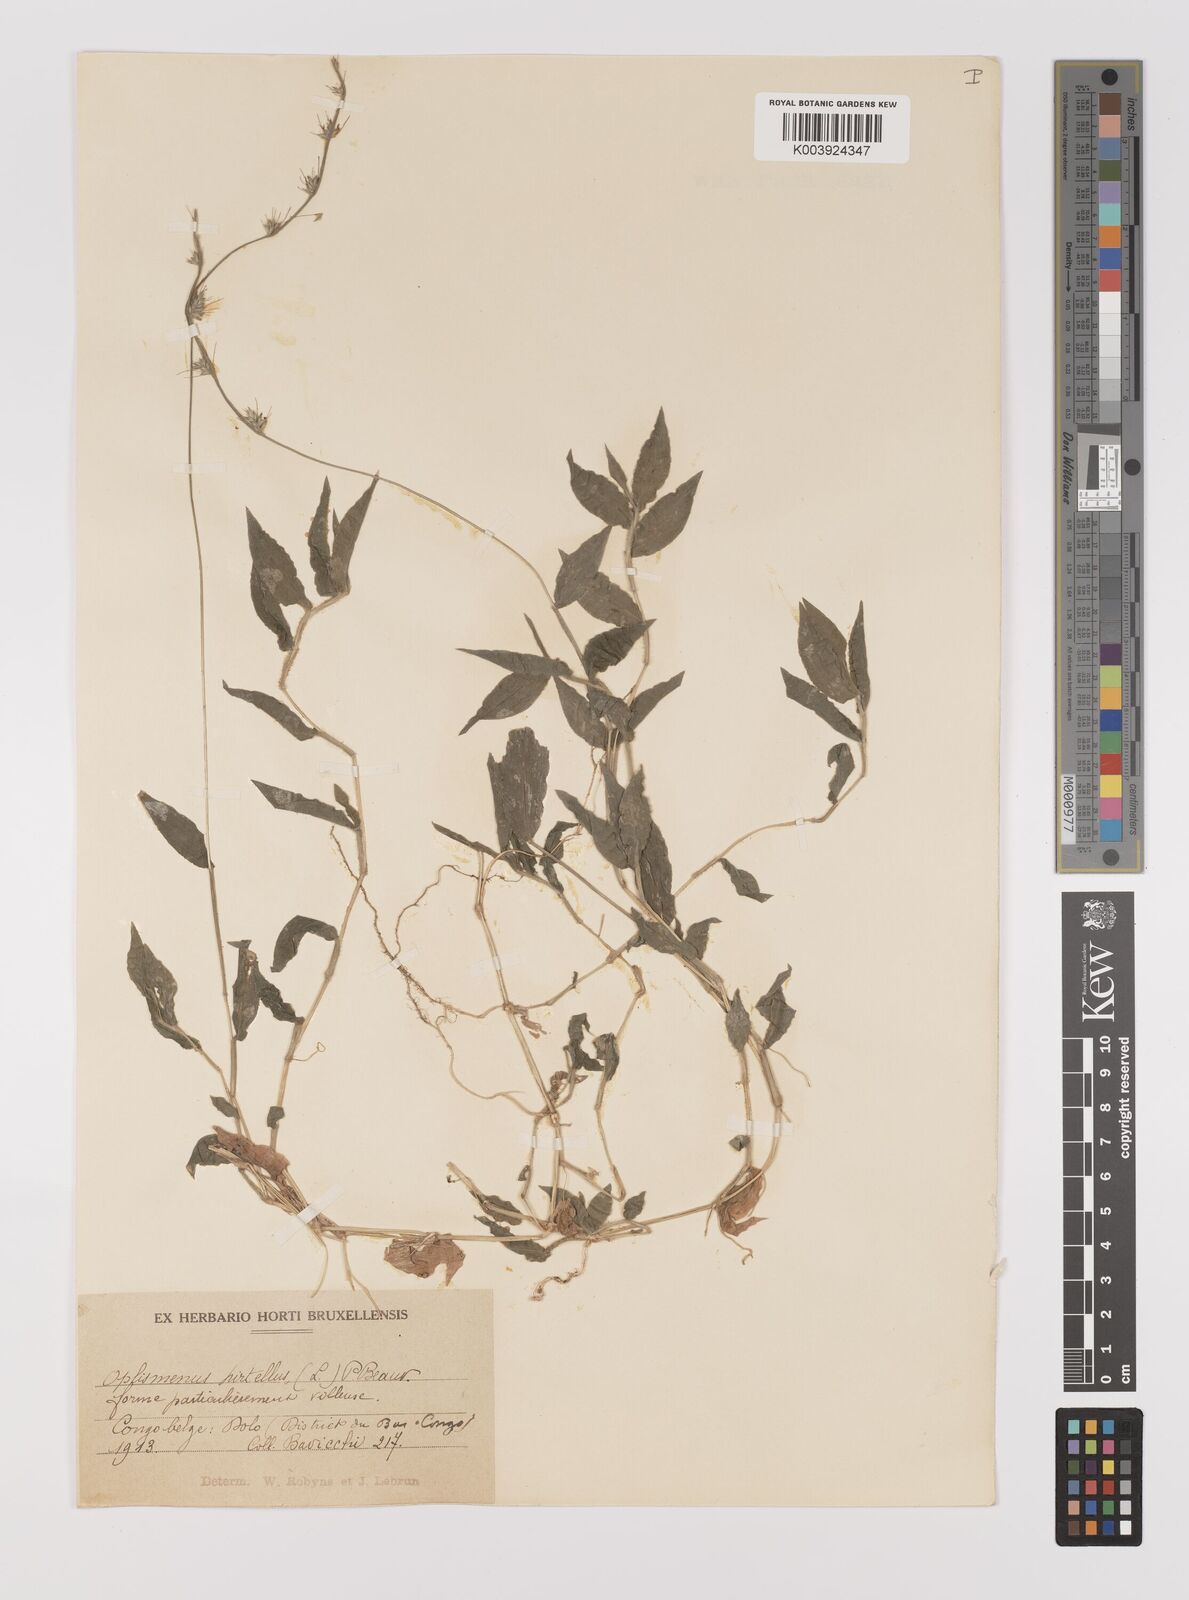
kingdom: Plantae
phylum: Tracheophyta
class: Liliopsida
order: Poales
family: Poaceae
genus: Oplismenus
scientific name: Oplismenus hirtellus
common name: Basketgrass
